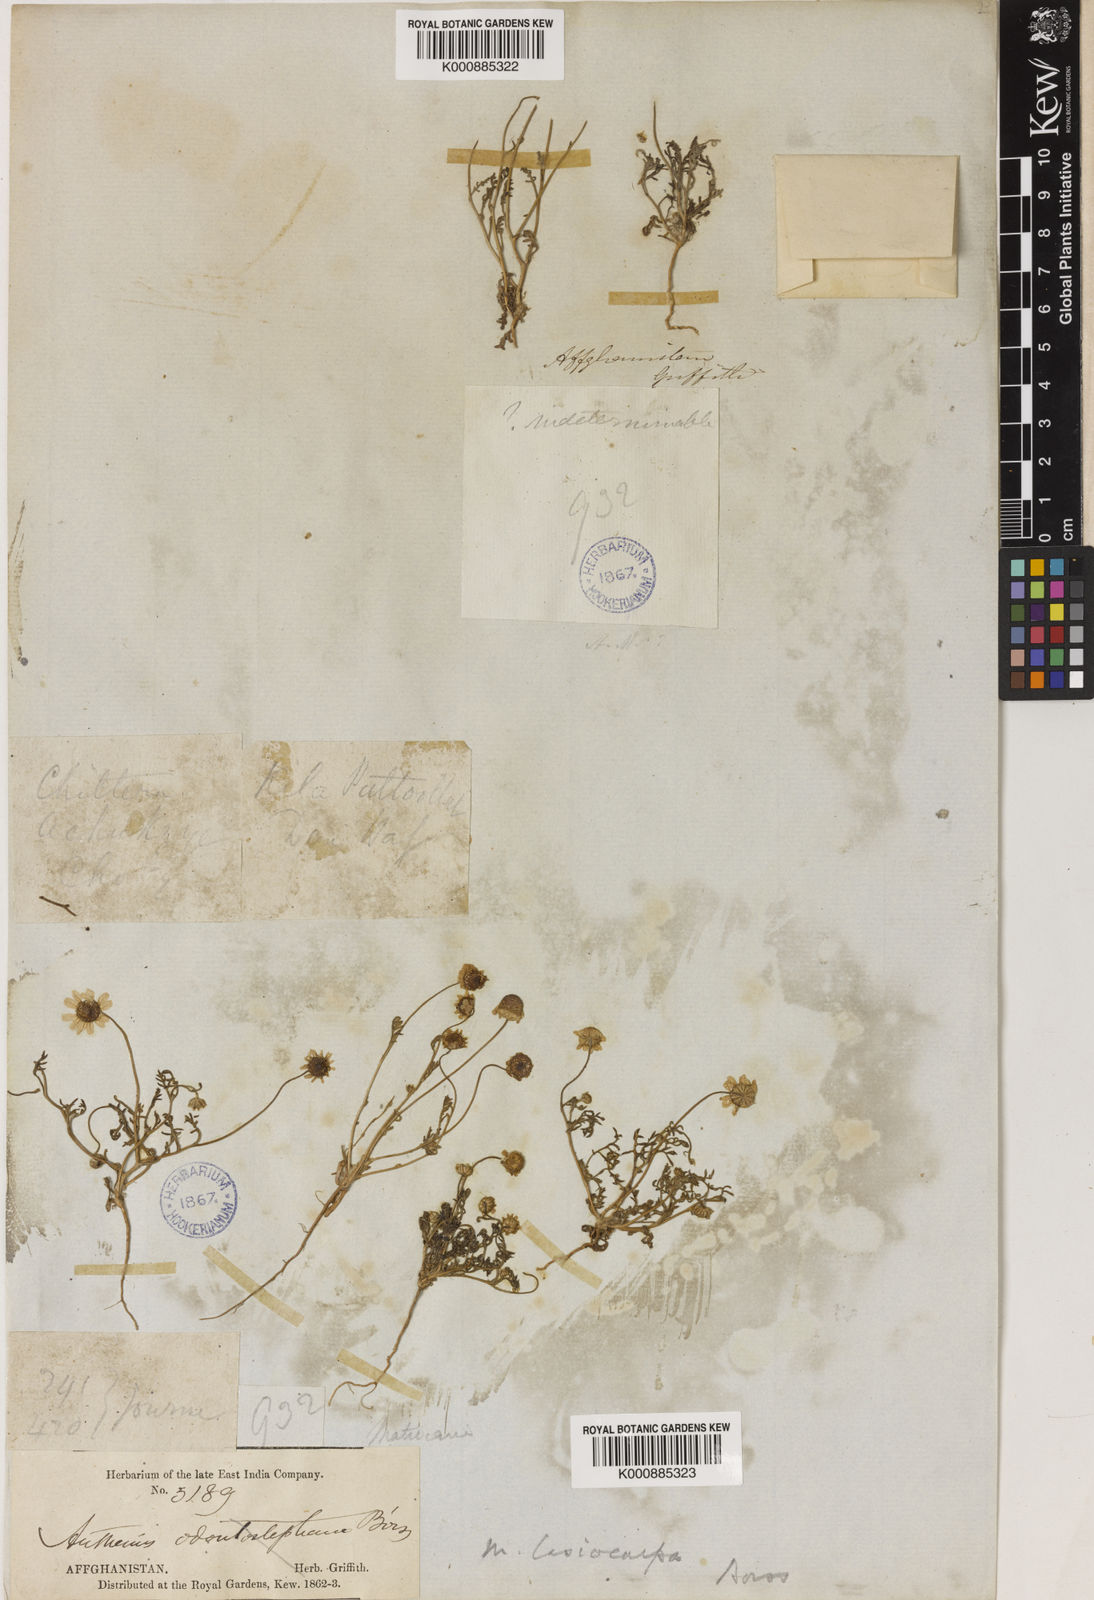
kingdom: Plantae
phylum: Tracheophyta
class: Magnoliopsida
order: Asterales
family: Asteraceae
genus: Microcephala
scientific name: Microcephala lamellata
